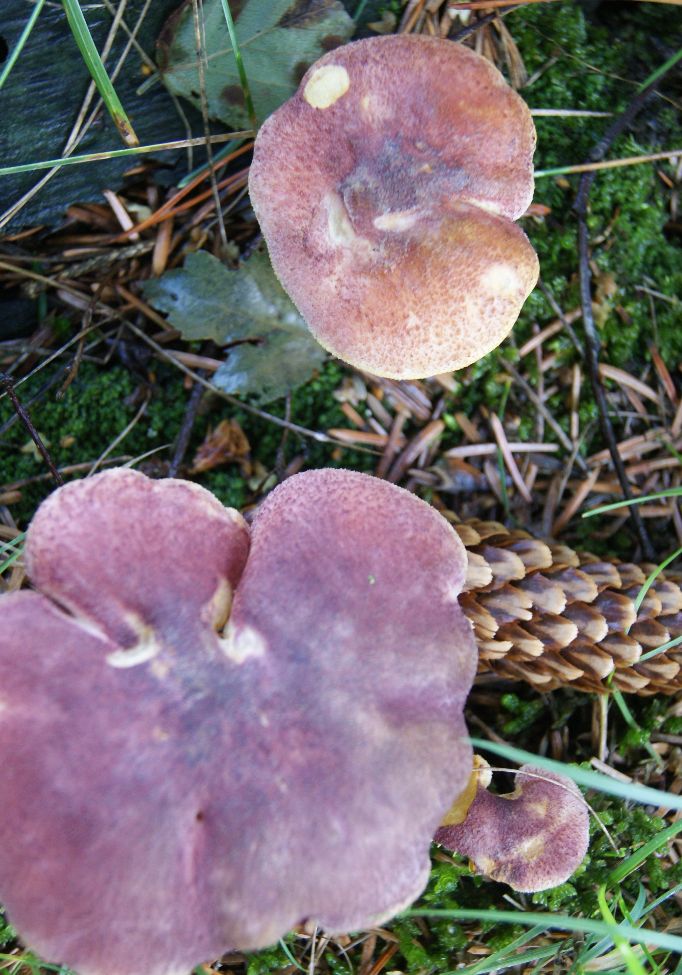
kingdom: Fungi
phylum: Basidiomycota
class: Agaricomycetes
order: Agaricales
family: Tricholomataceae
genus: Tricholomopsis
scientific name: Tricholomopsis rutilans
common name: purpur-væbnerhat
